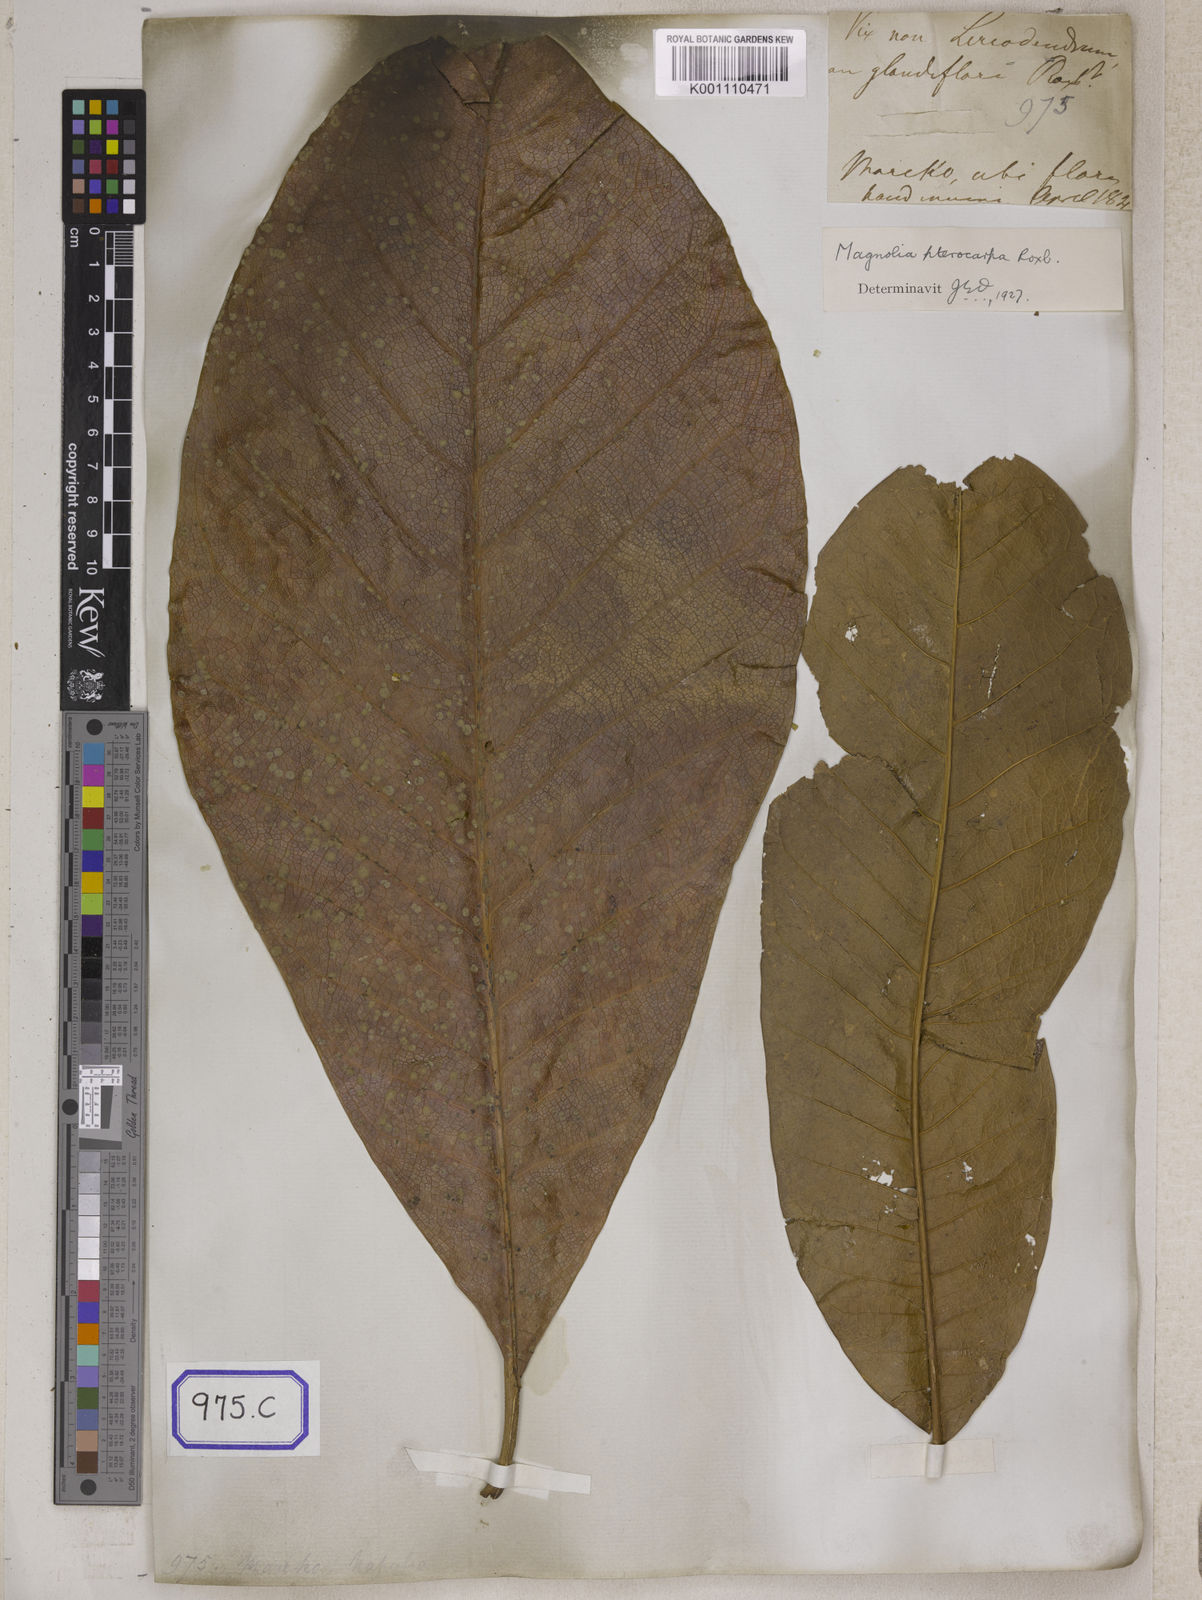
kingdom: Plantae
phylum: Tracheophyta
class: Magnoliopsida
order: Magnoliales
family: Magnoliaceae
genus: Magnolia
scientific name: Magnolia
